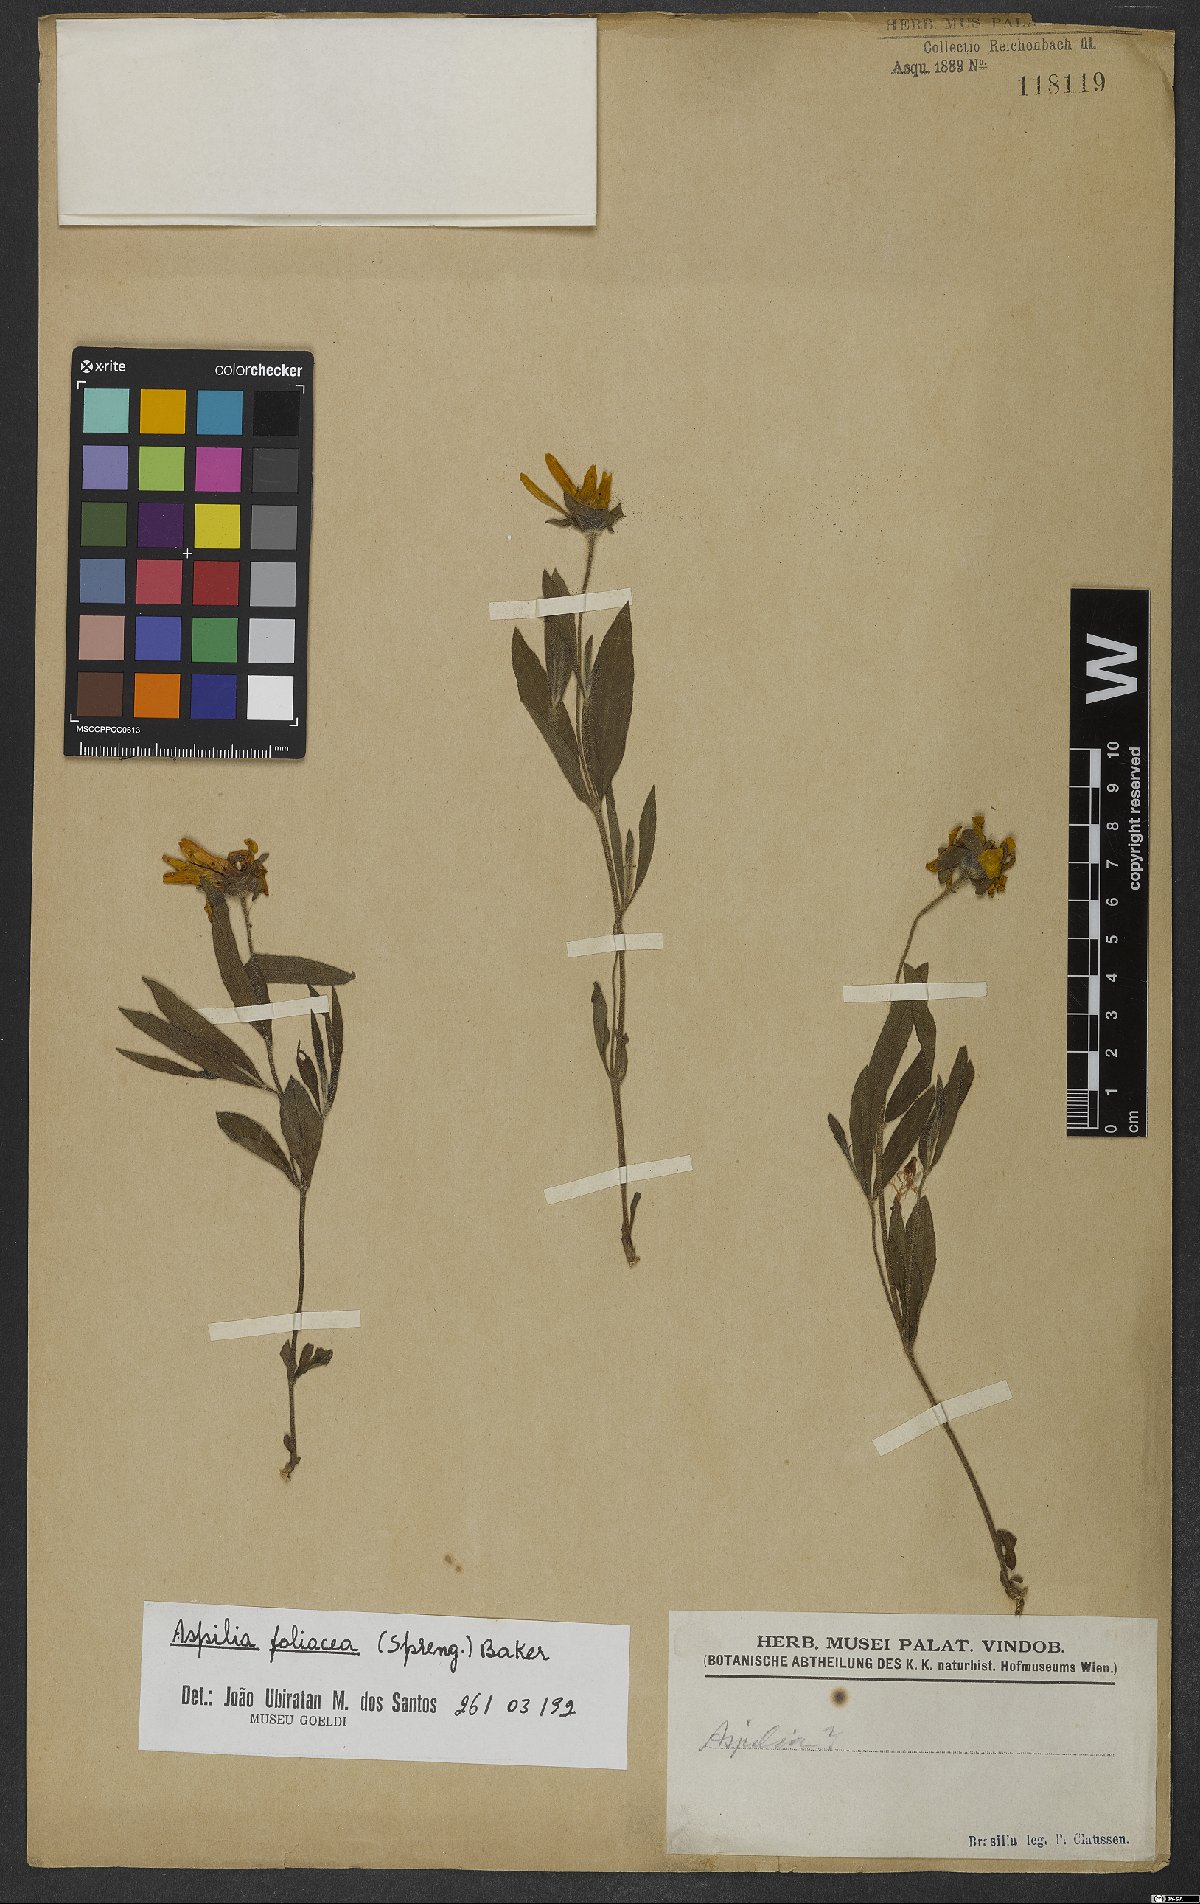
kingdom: Plantae
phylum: Tracheophyta
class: Magnoliopsida
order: Asterales
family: Asteraceae
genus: Aspilia
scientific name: Aspilia foliosa
